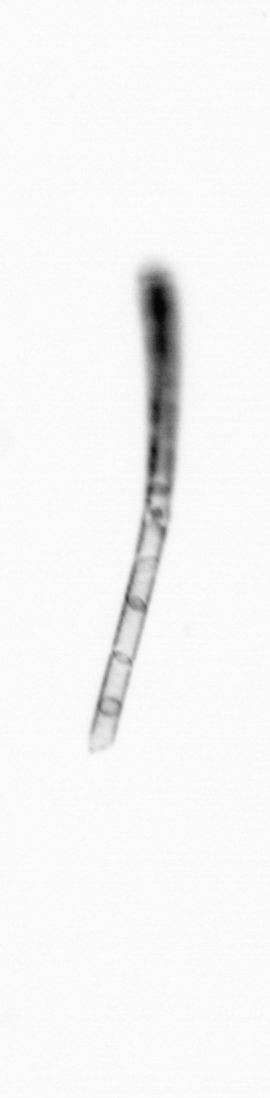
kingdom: Chromista
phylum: Ochrophyta
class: Bacillariophyceae
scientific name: Bacillariophyceae
